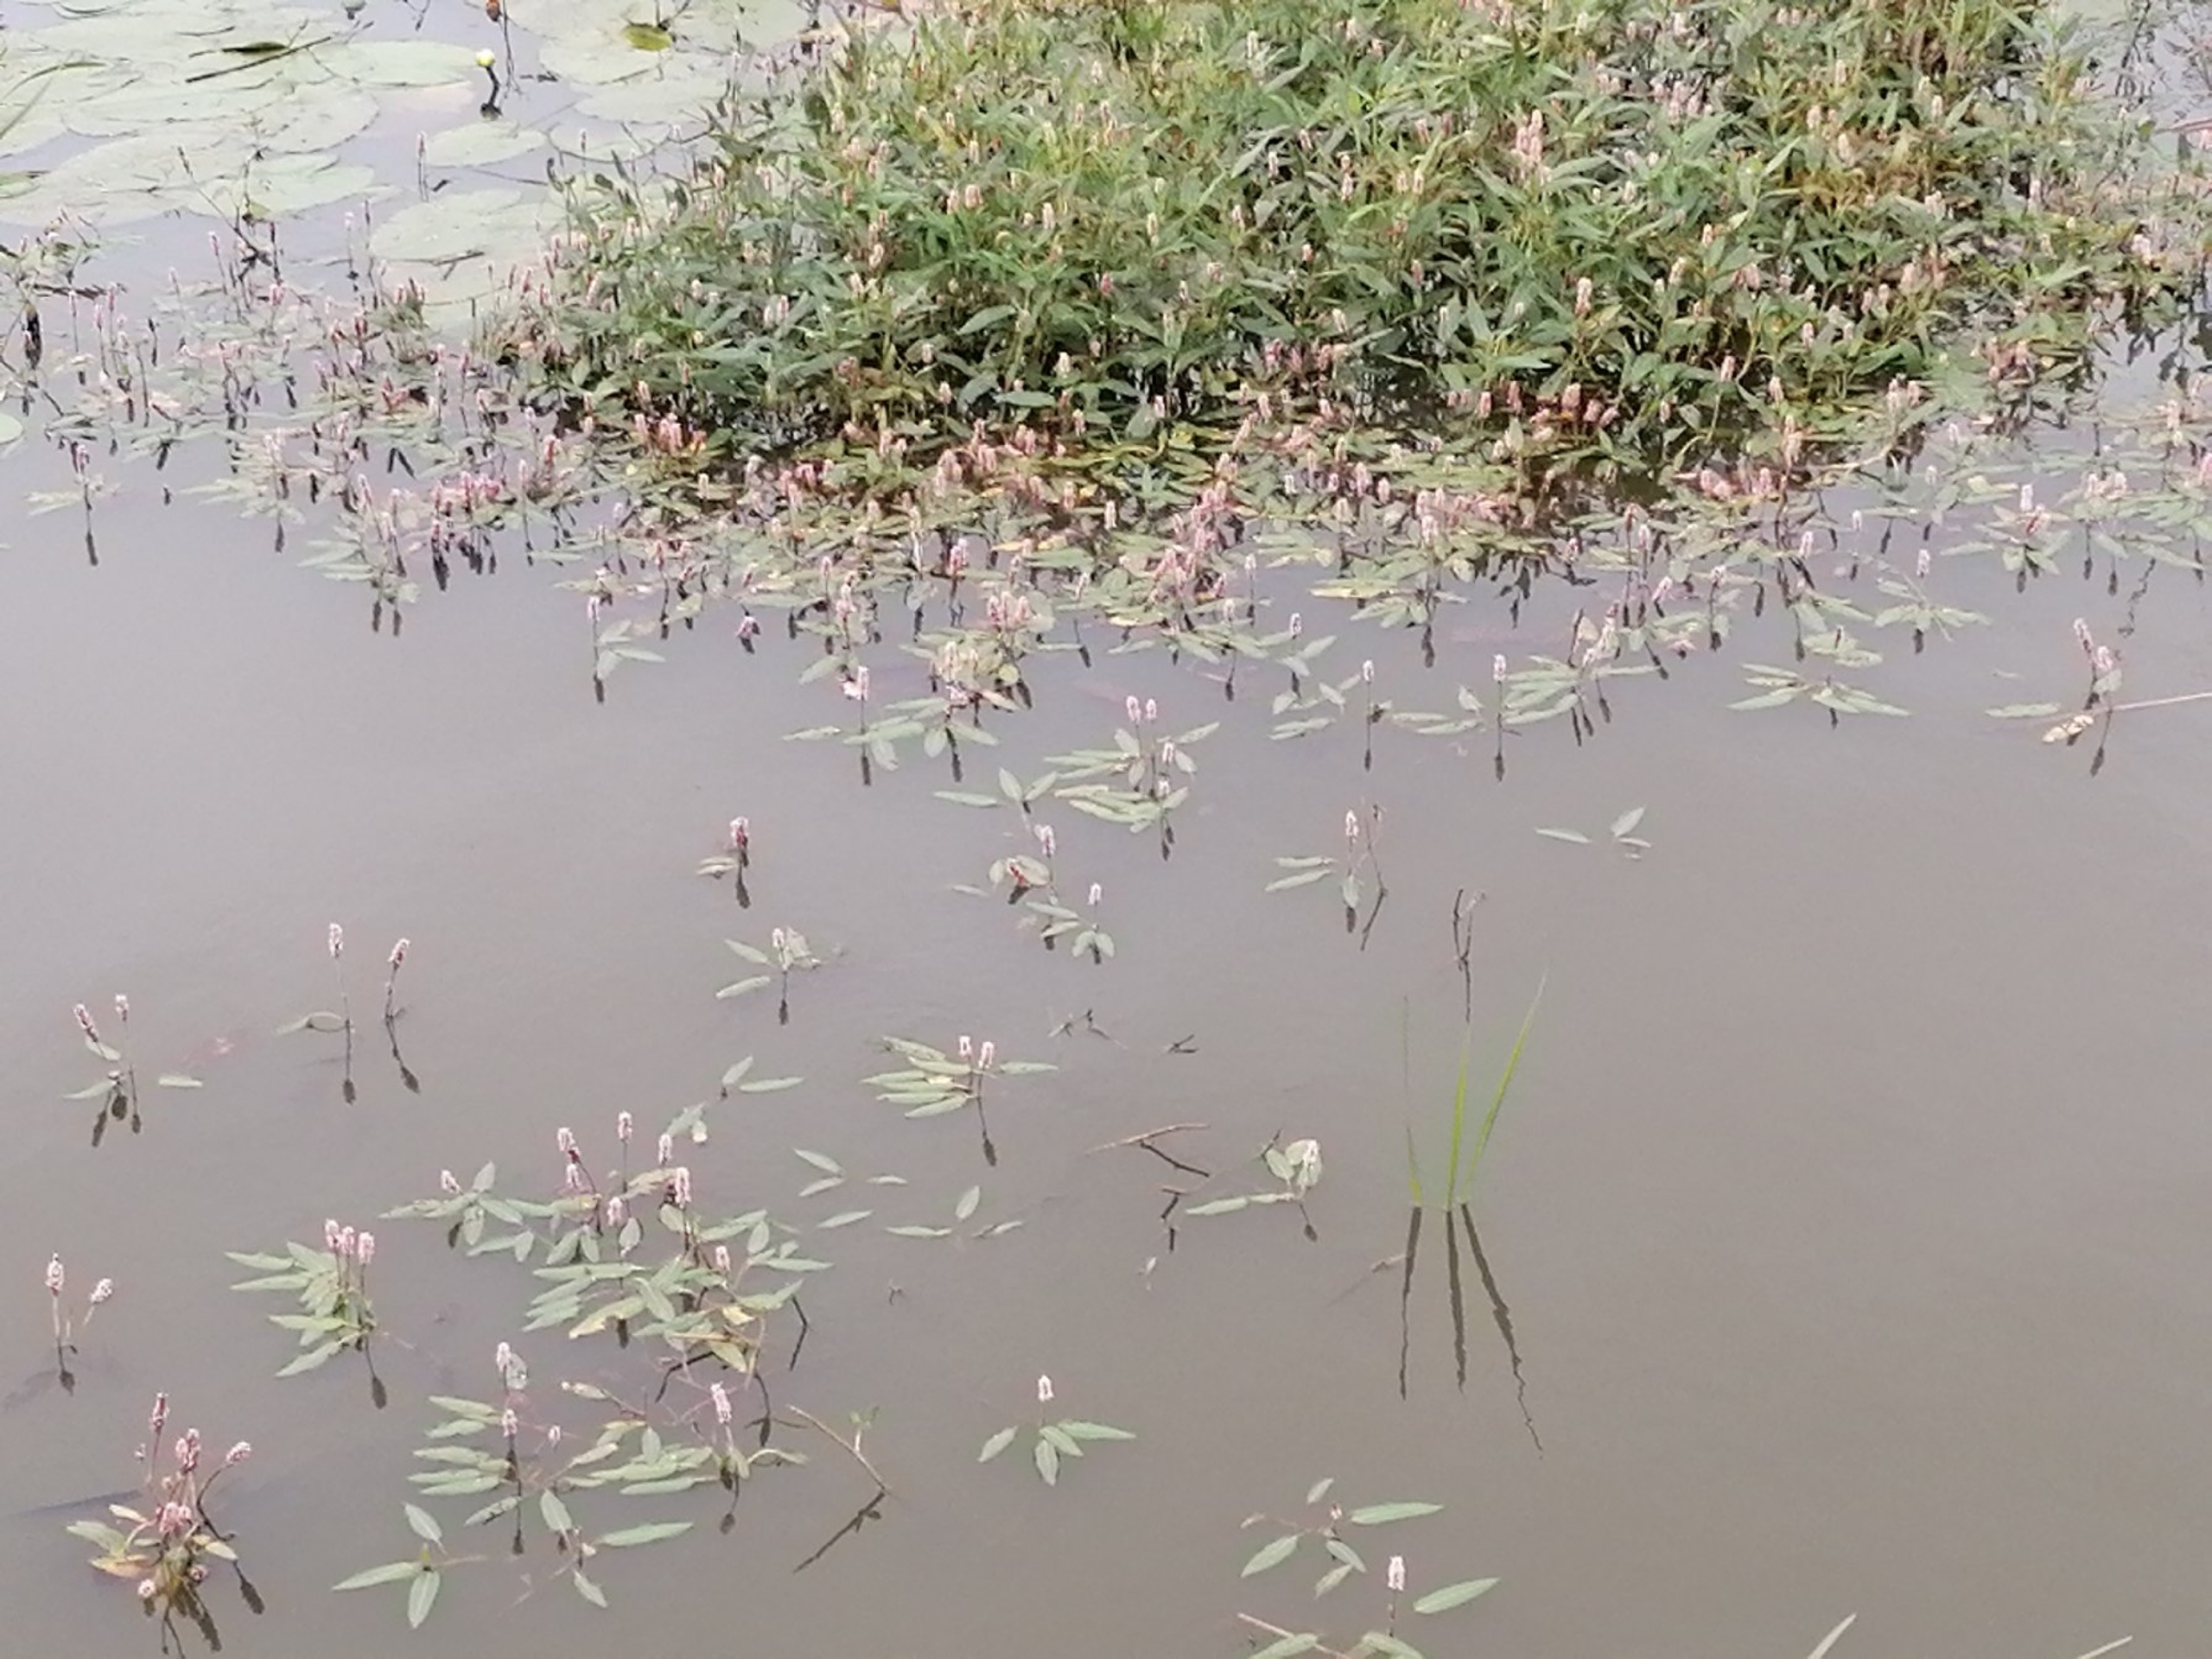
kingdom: Plantae
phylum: Tracheophyta
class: Magnoliopsida
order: Caryophyllales
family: Polygonaceae
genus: Persicaria
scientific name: Persicaria amphibia
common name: Vand-pileurt
